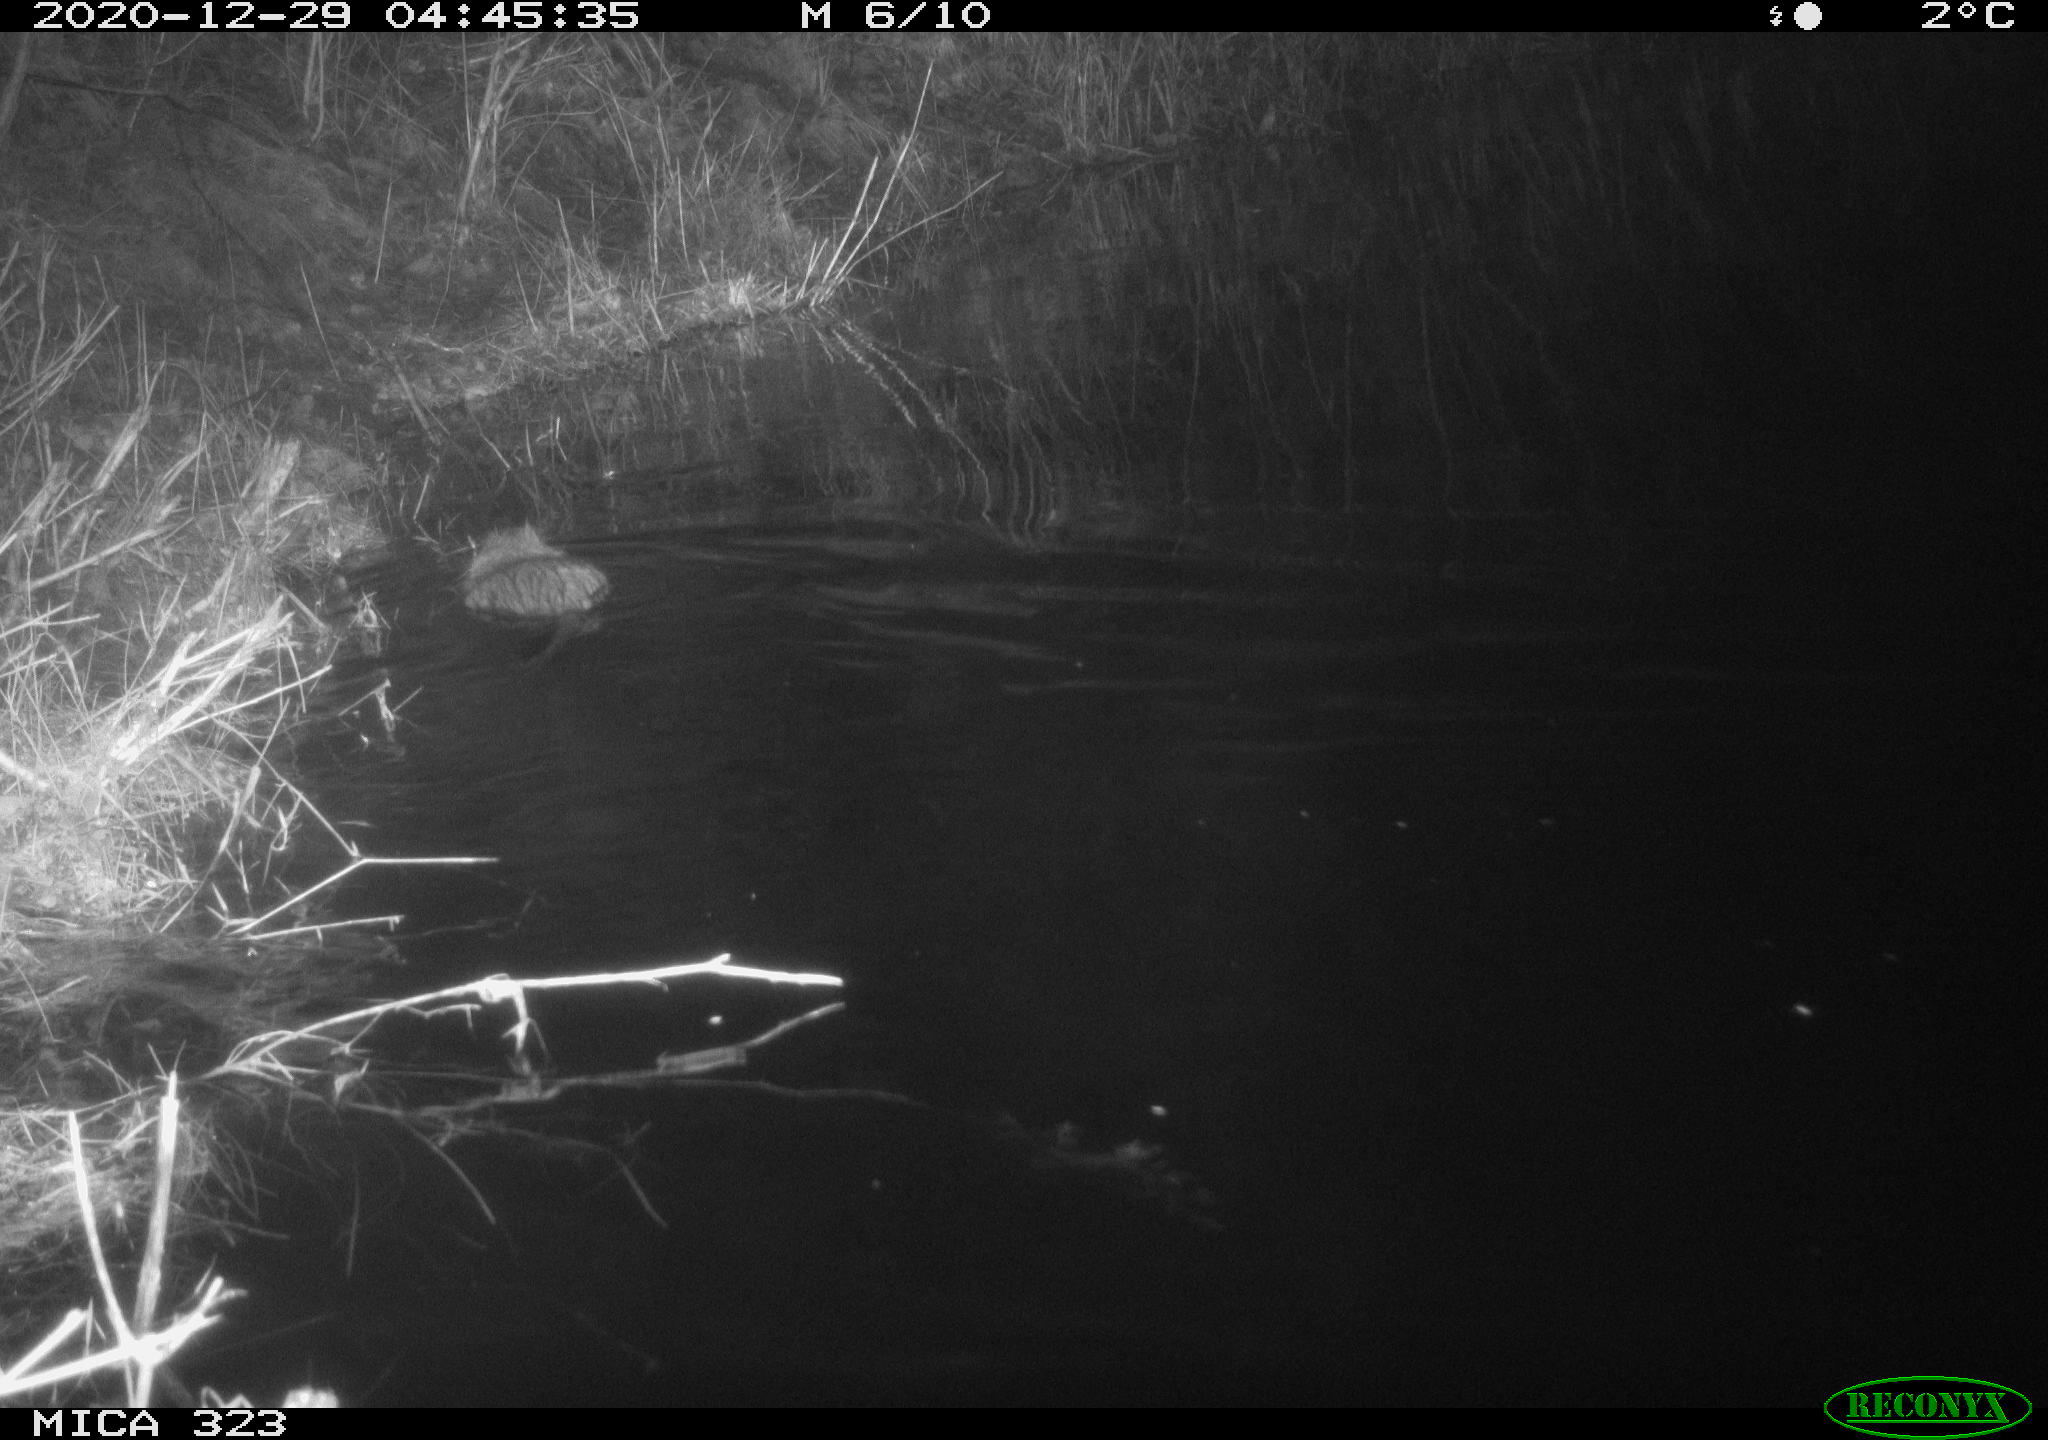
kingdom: Animalia
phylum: Chordata
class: Mammalia
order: Rodentia
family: Myocastoridae
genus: Myocastor
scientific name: Myocastor coypus
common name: Coypu
